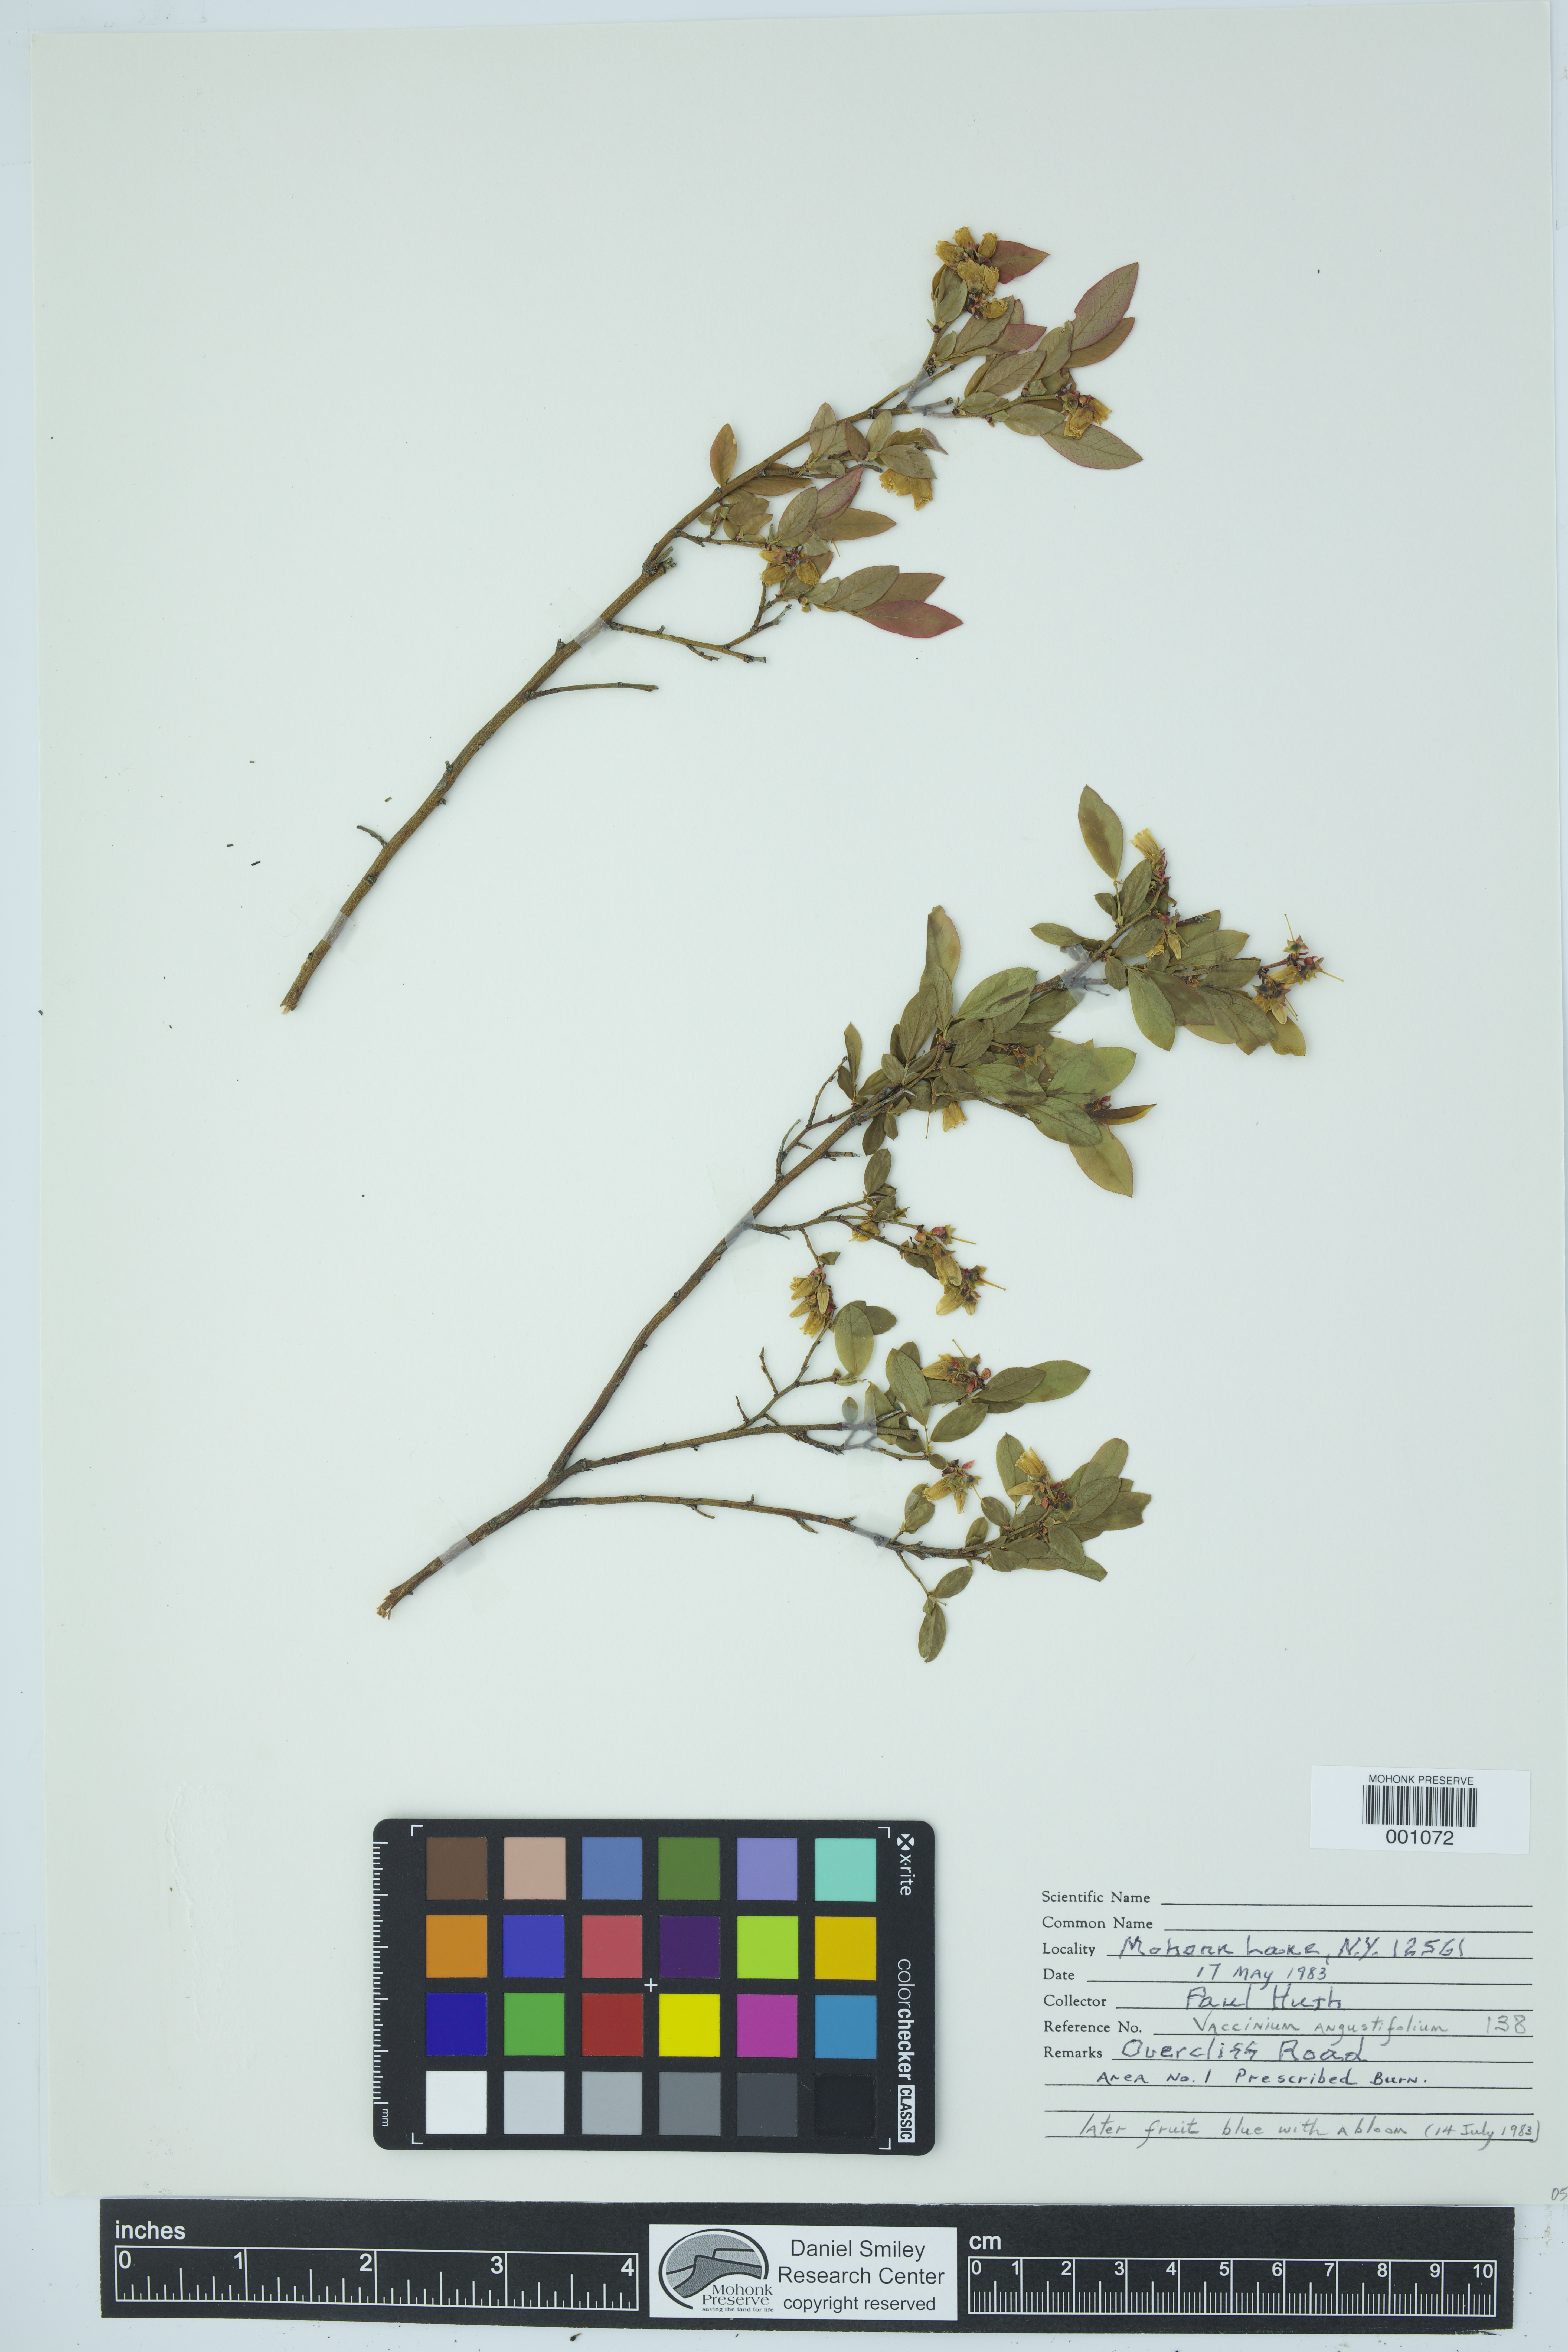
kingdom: Plantae
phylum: Tracheophyta
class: Magnoliopsida
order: Ericales
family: Ericaceae
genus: Vaccinium
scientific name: Vaccinium angustifolium
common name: Early lowbush blueberry
